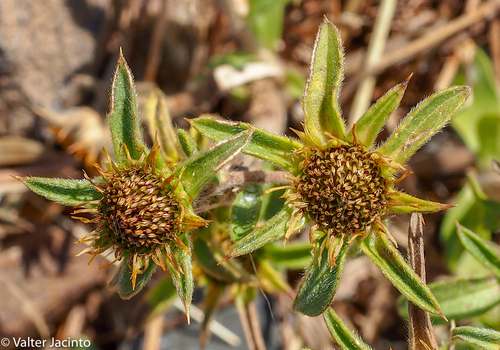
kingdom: Plantae
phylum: Tracheophyta
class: Magnoliopsida
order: Asterales
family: Asteraceae
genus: Pallenis
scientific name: Pallenis spinosa
